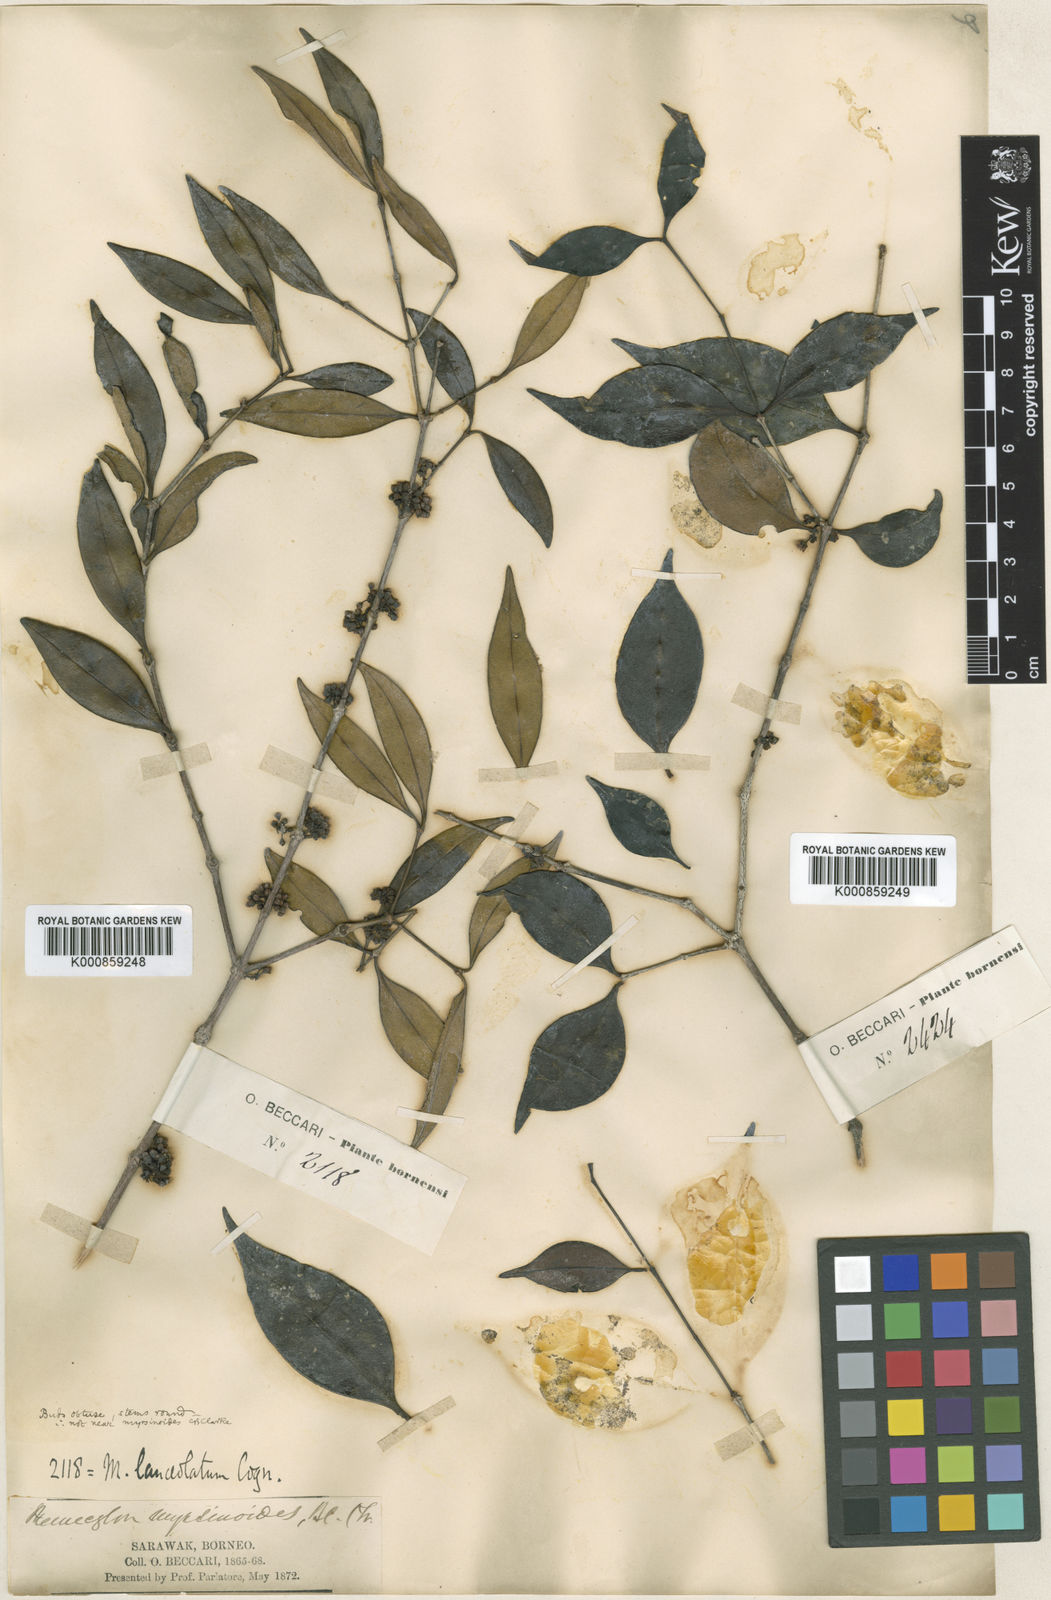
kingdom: Plantae
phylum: Tracheophyta
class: Magnoliopsida
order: Myrtales
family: Melastomataceae
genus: Memecylon
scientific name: Memecylon borneense
